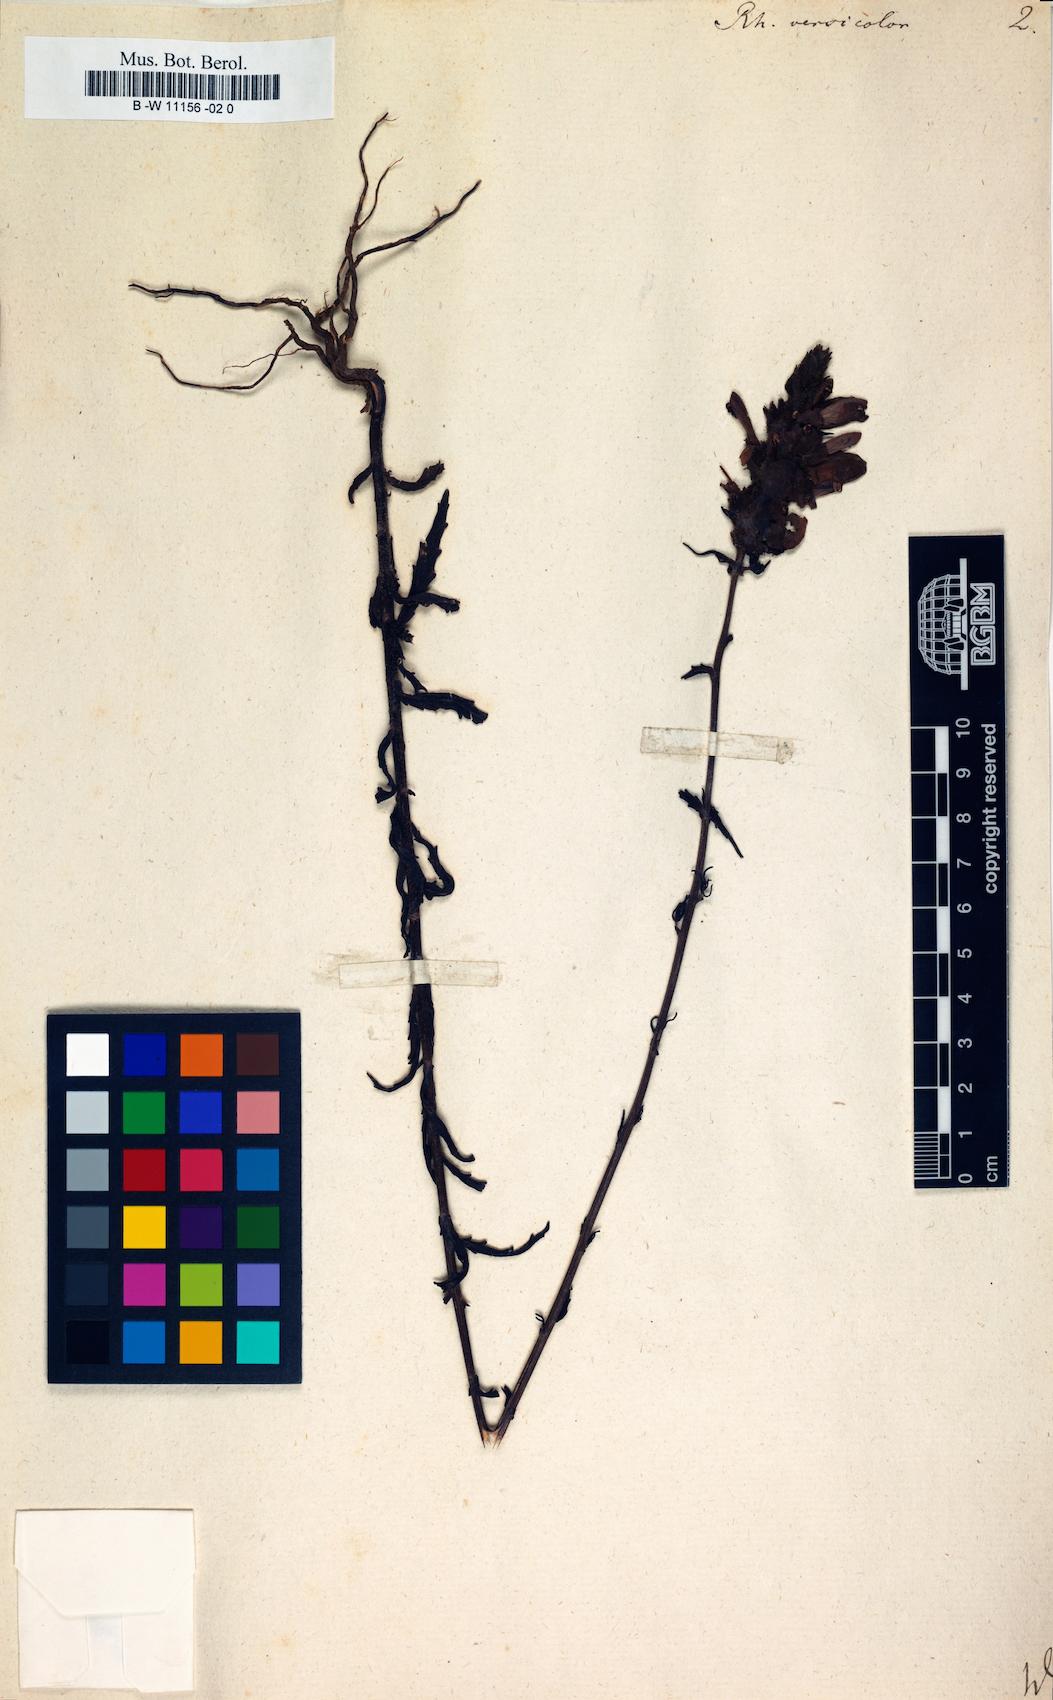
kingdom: Plantae
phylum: Tracheophyta
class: Magnoliopsida
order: Lamiales
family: Orobanchaceae
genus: Bellardia
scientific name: Bellardia trixago
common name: Mediterranean lineseed
